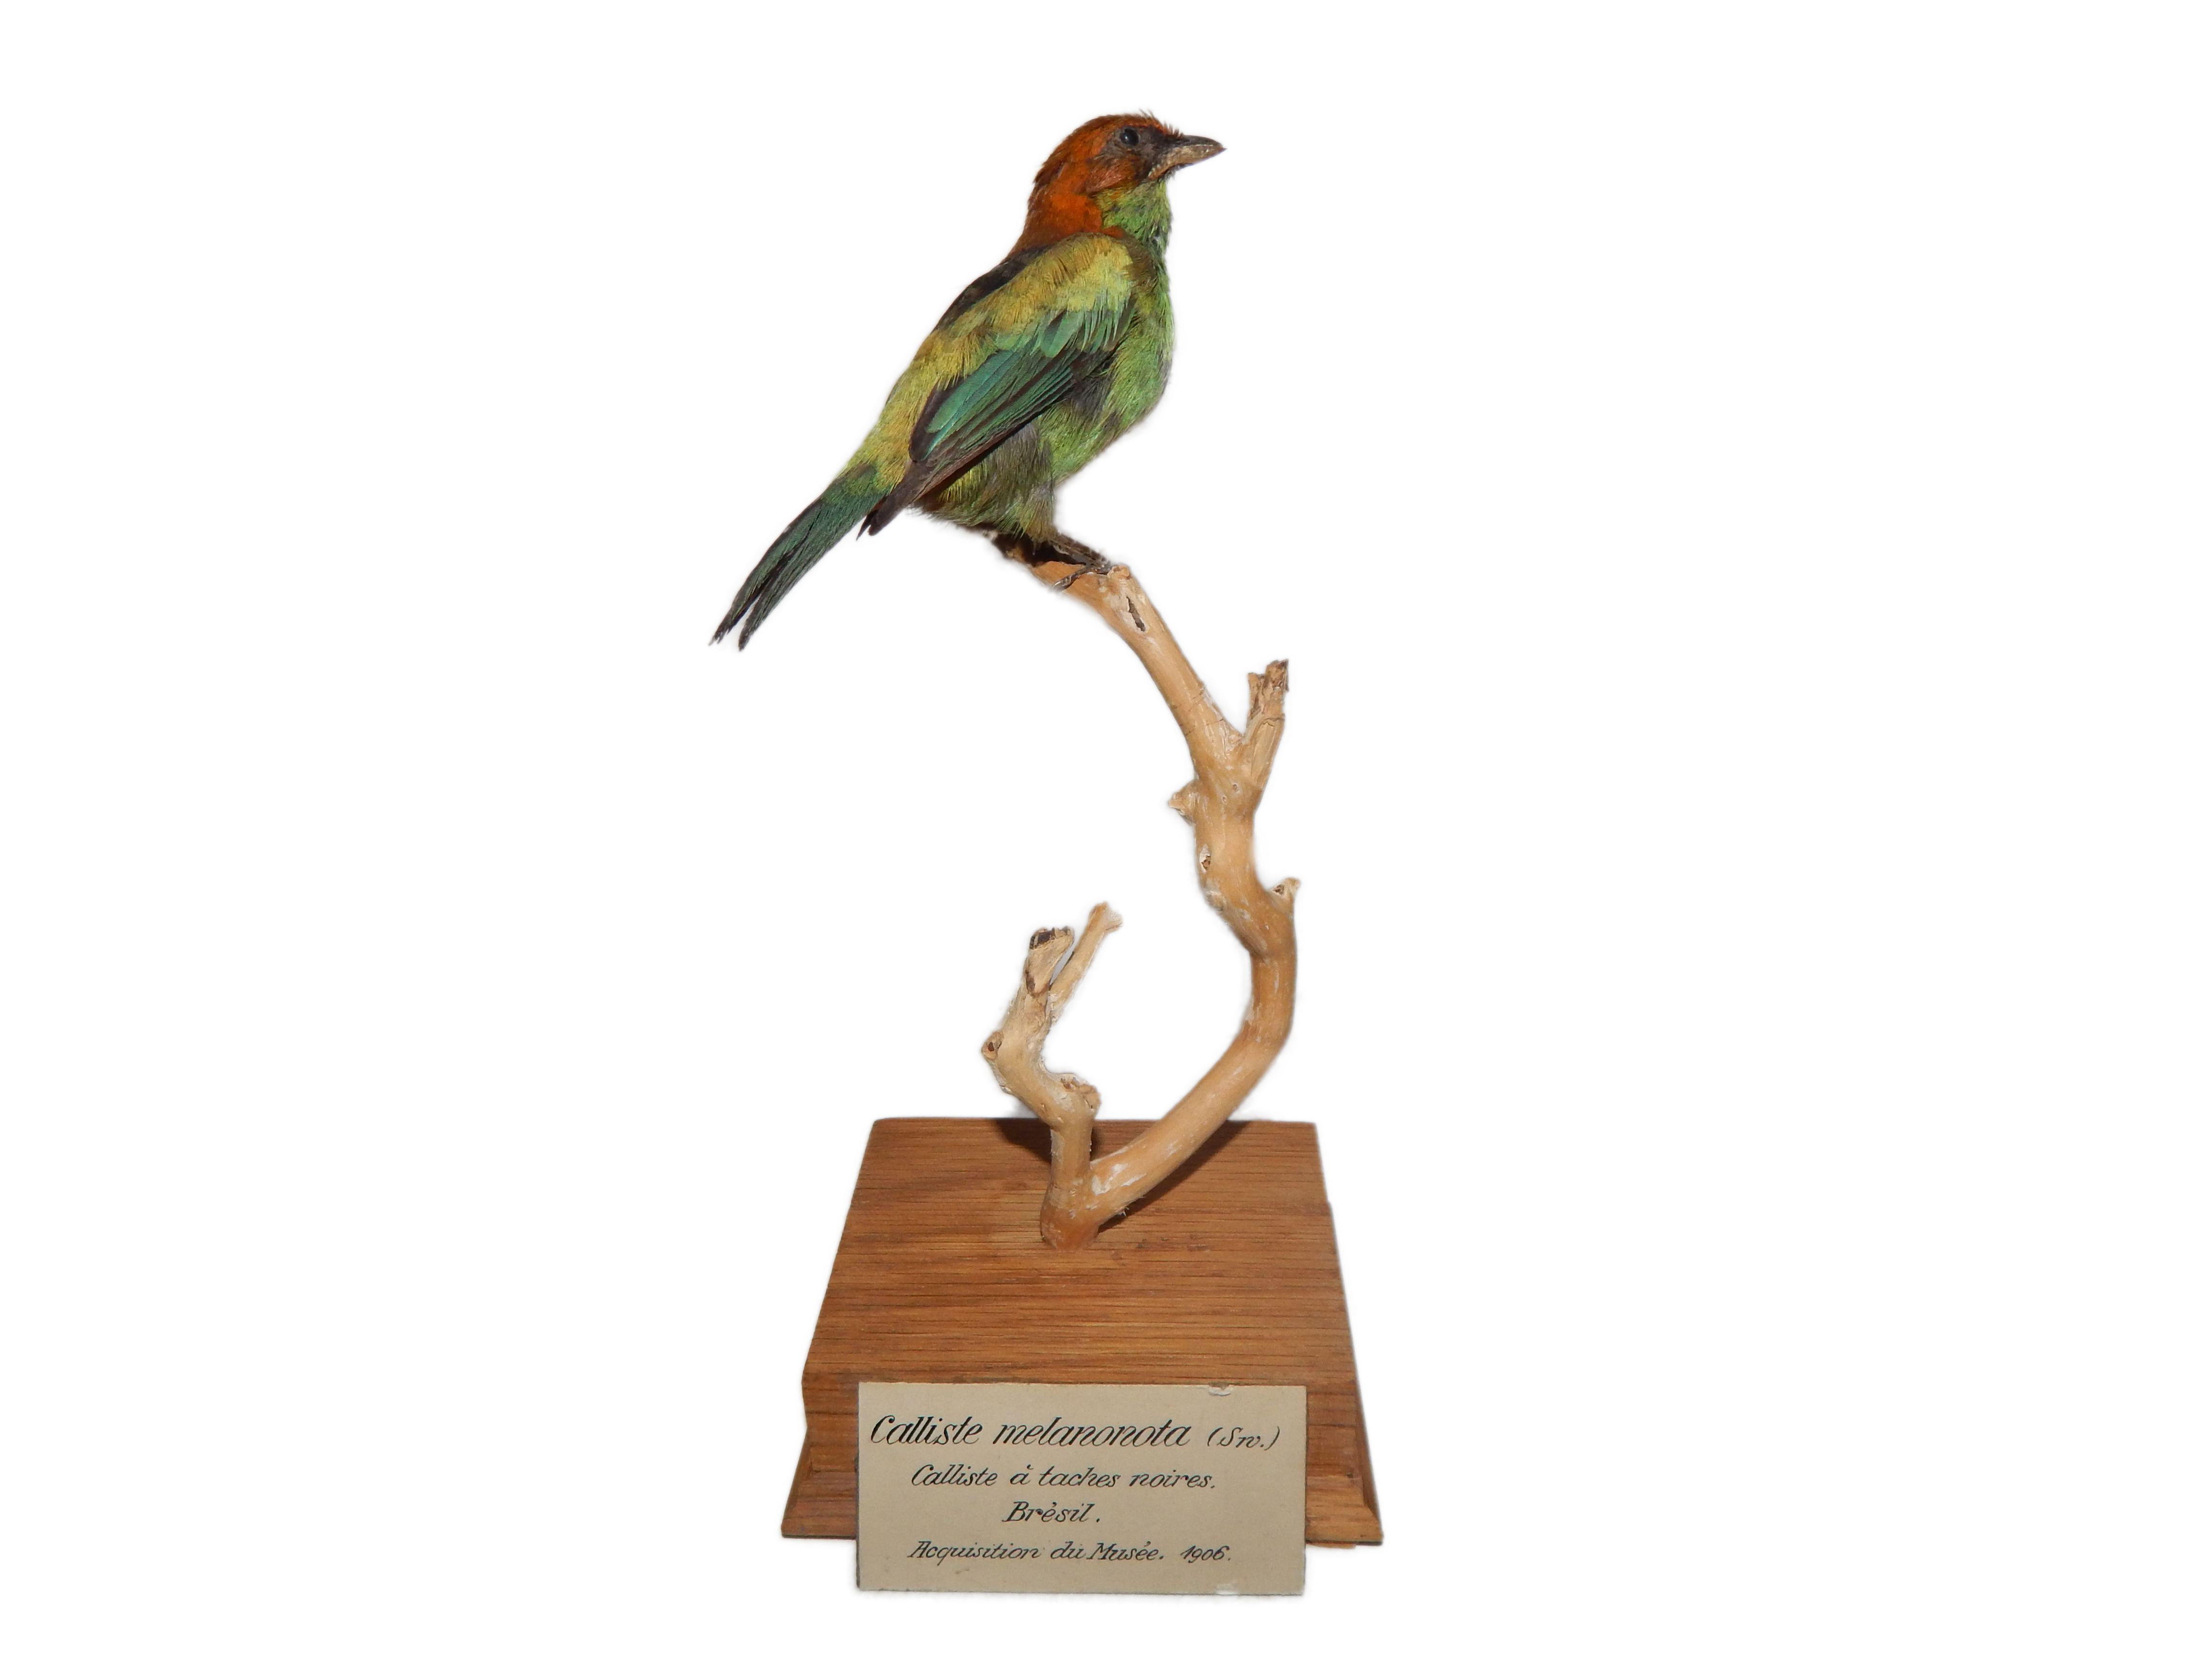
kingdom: Animalia
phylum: Chordata
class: Aves
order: Passeriformes
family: Thraupidae
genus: Stilpnia
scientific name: Stilpnia peruviana
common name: Black-backed tanager
